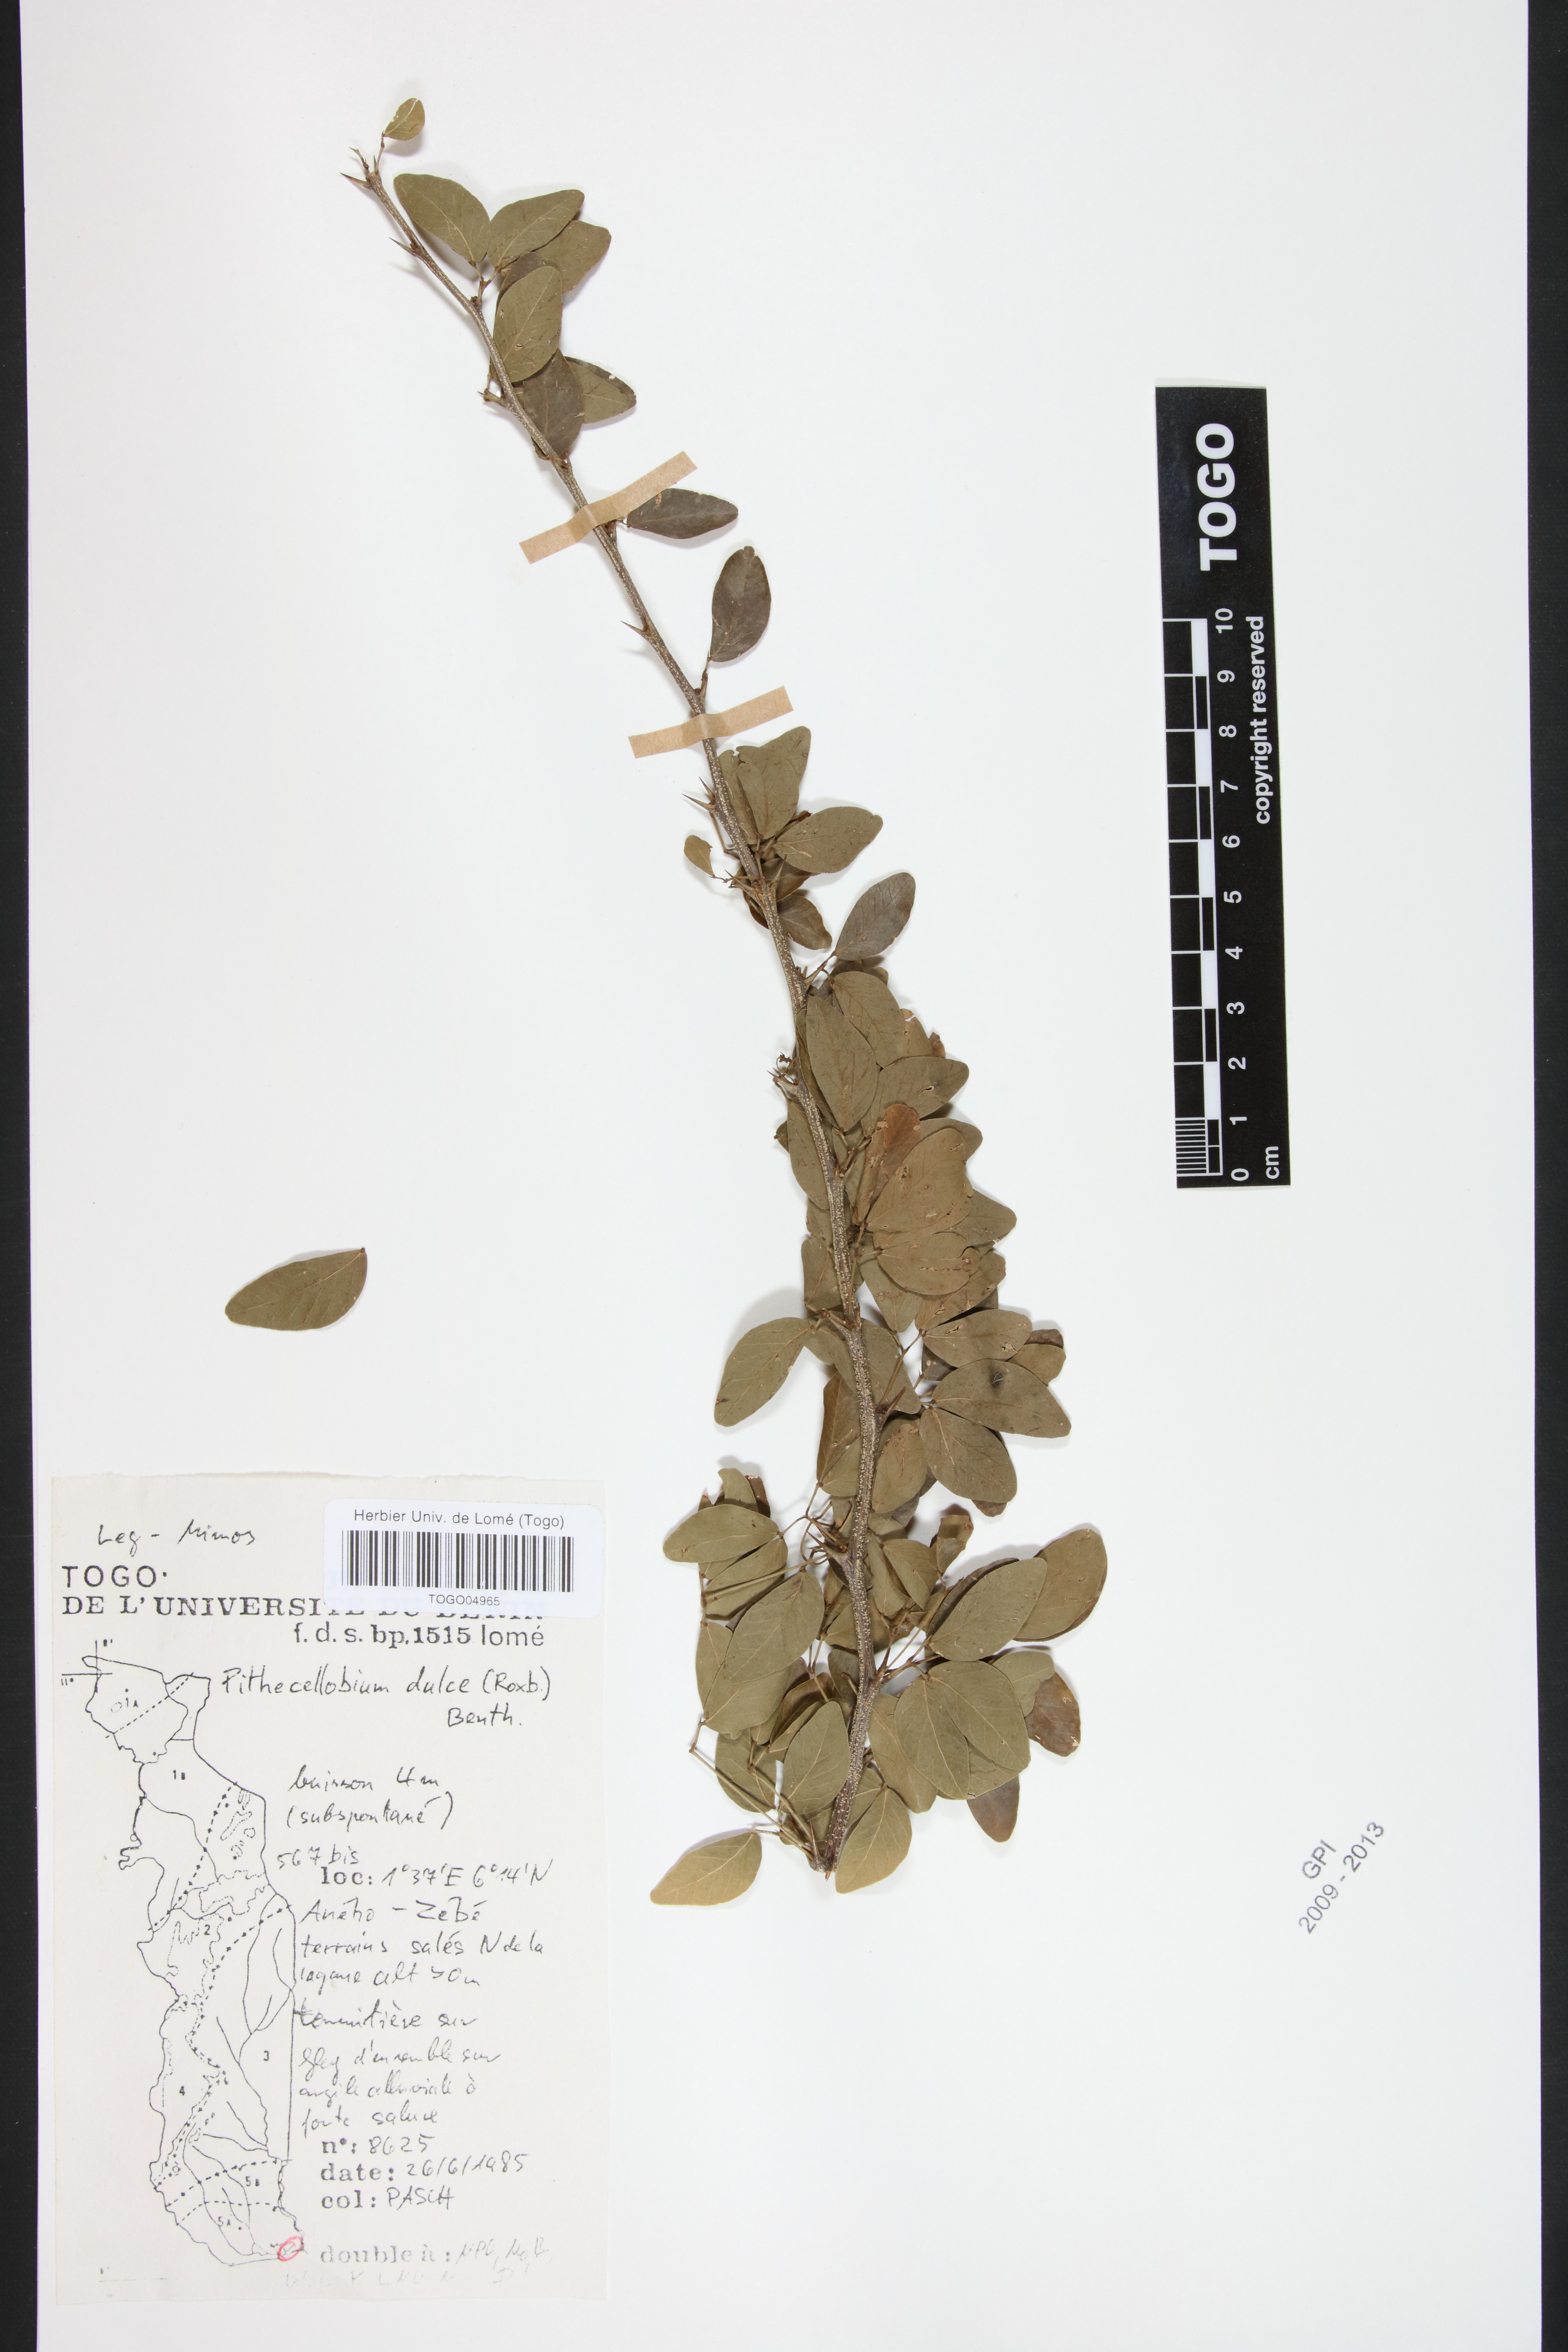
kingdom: Plantae
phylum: Tracheophyta
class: Magnoliopsida
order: Fabales
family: Fabaceae
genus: Pithecellobium
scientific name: Pithecellobium dulce
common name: Monkeypod
